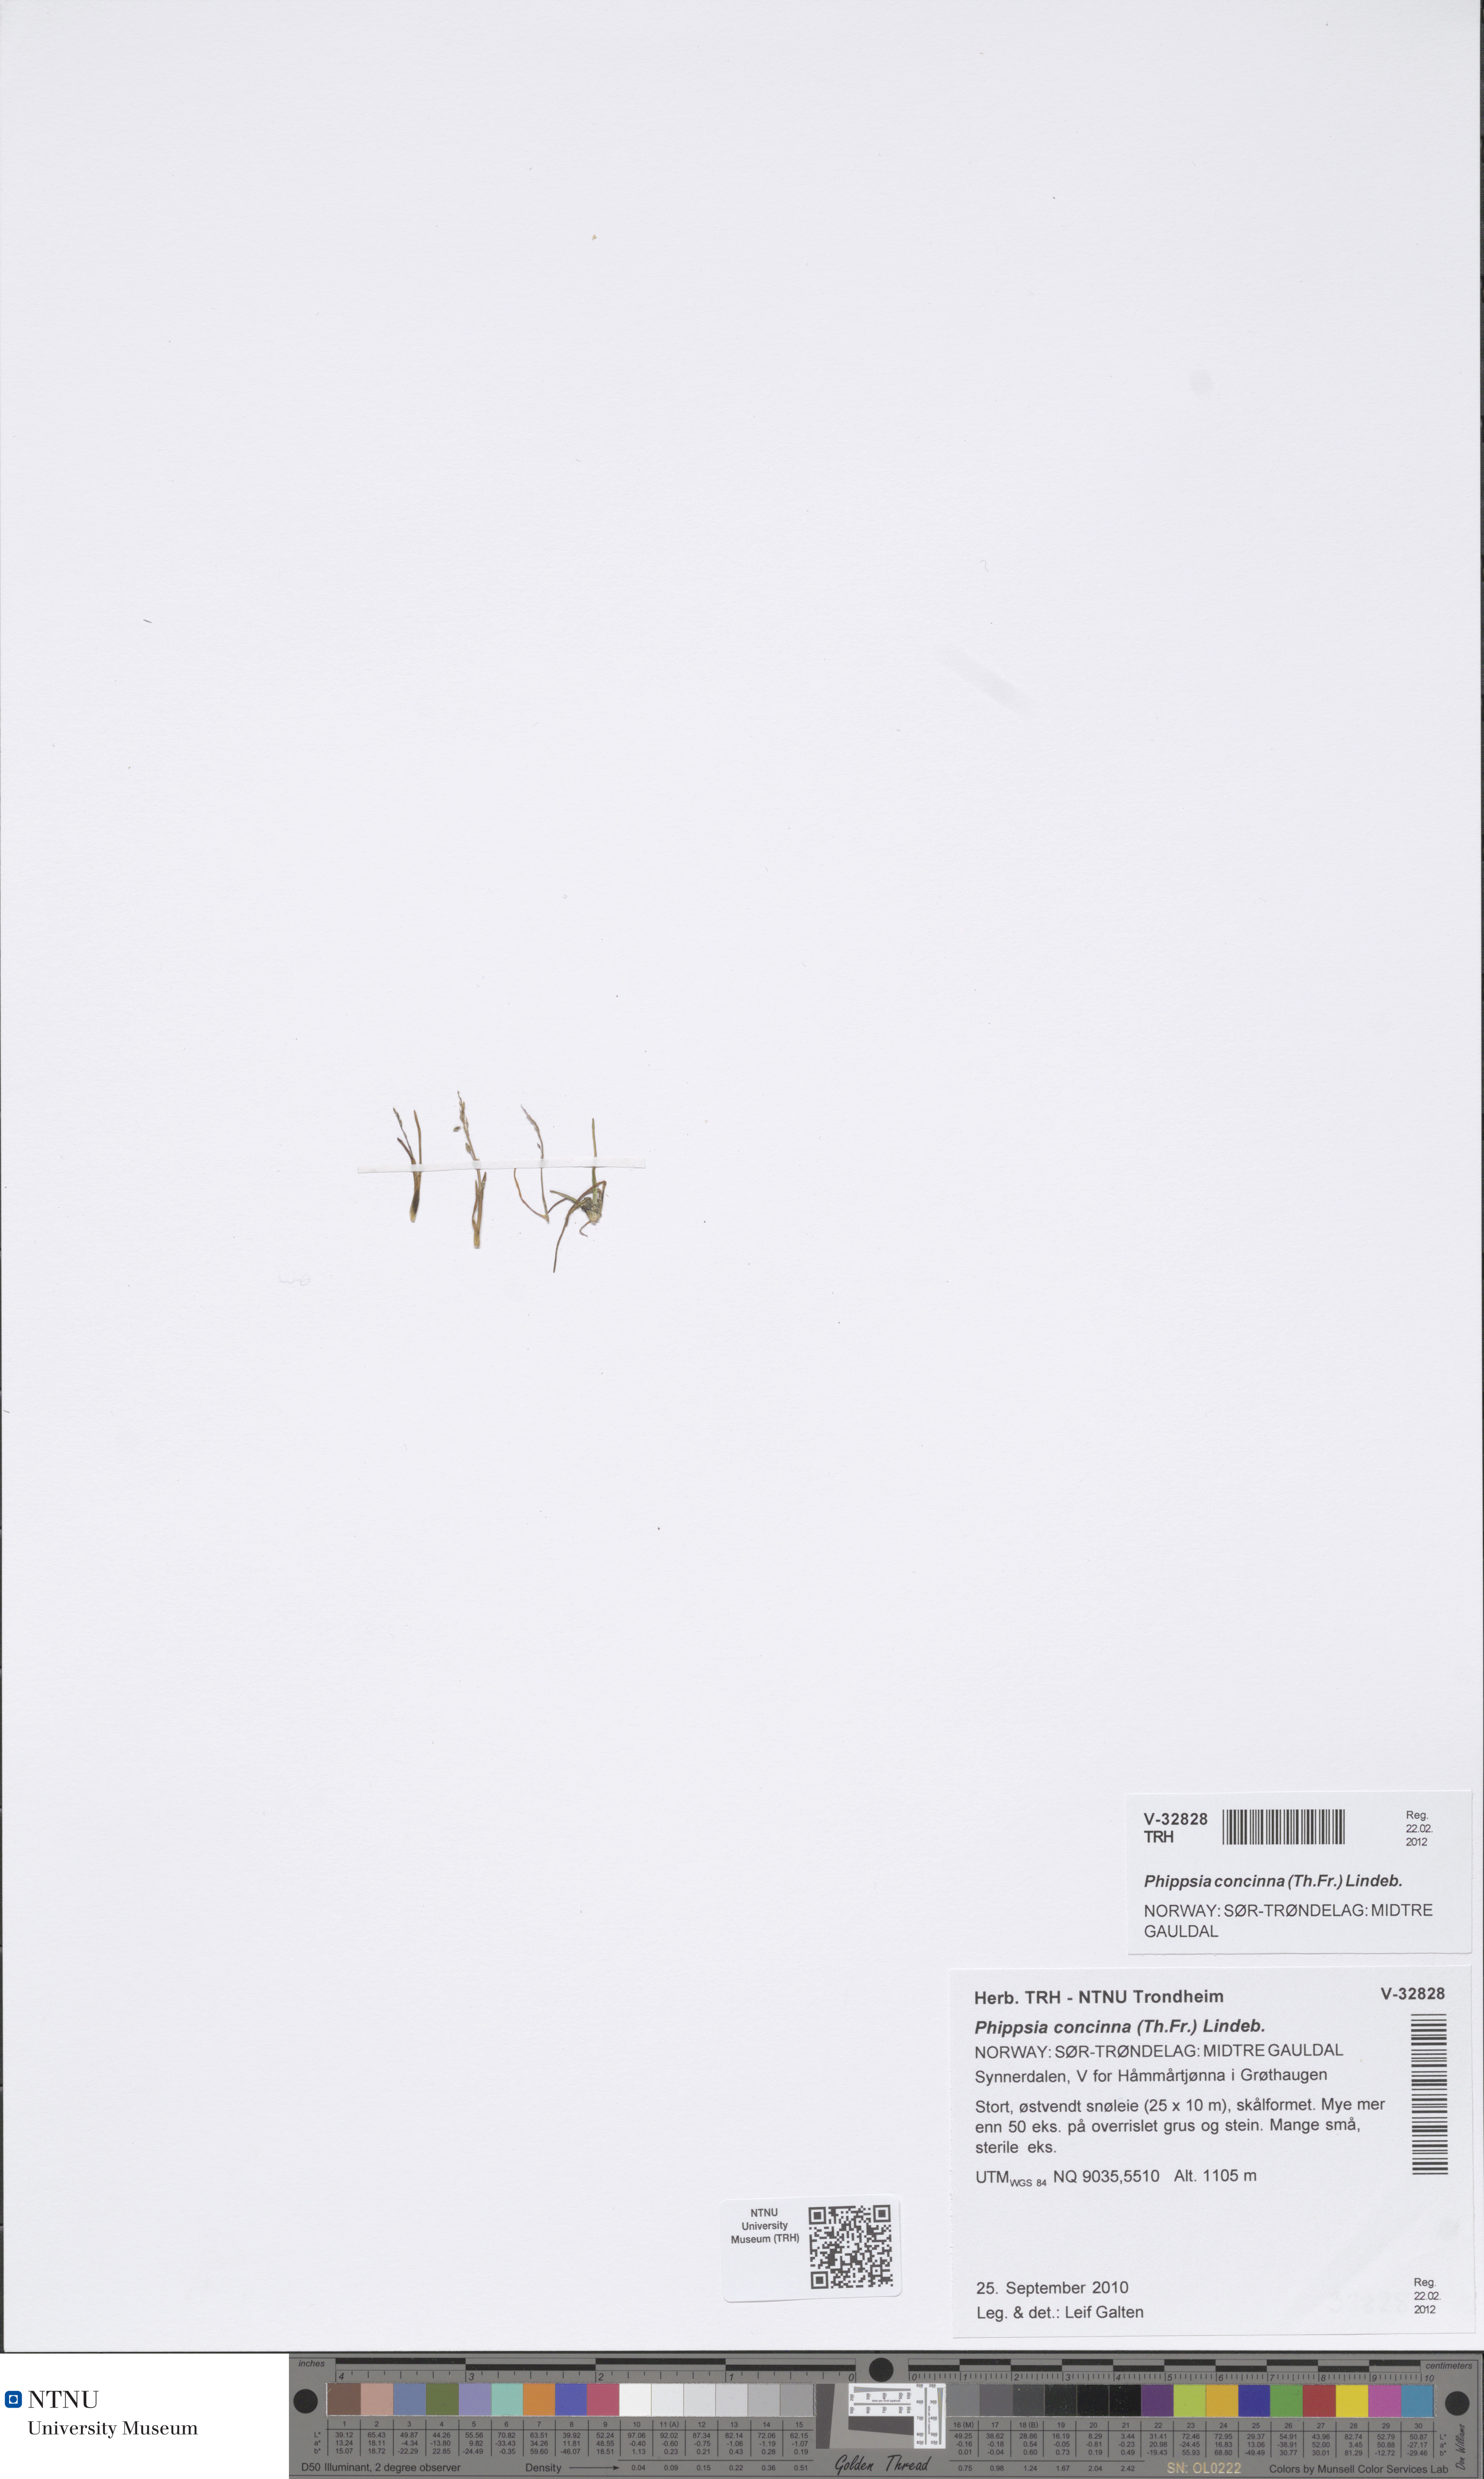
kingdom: Plantae
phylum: Tracheophyta
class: Liliopsida
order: Poales
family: Poaceae
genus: Phippsia
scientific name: Phippsia concinna
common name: Snowgrass
